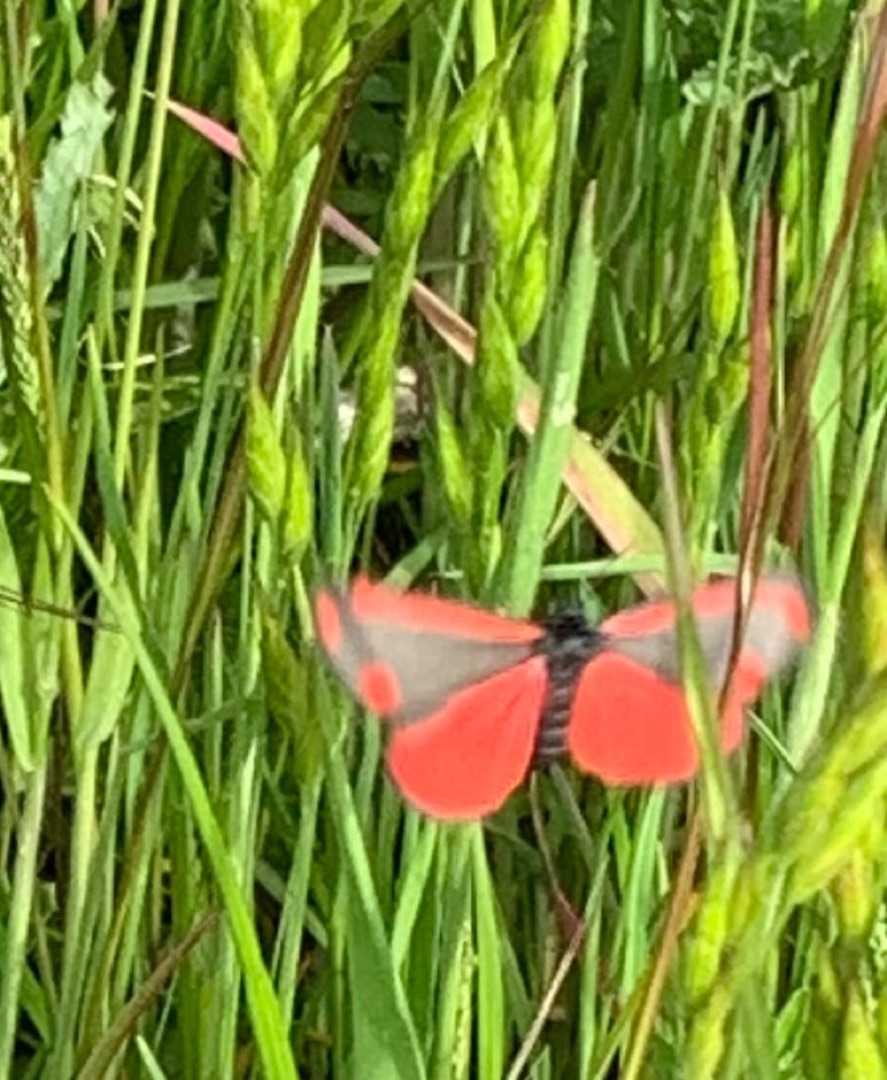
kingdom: Animalia
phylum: Arthropoda
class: Insecta
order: Lepidoptera
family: Erebidae
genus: Tyria
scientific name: Tyria jacobaeae
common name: Blodplet
